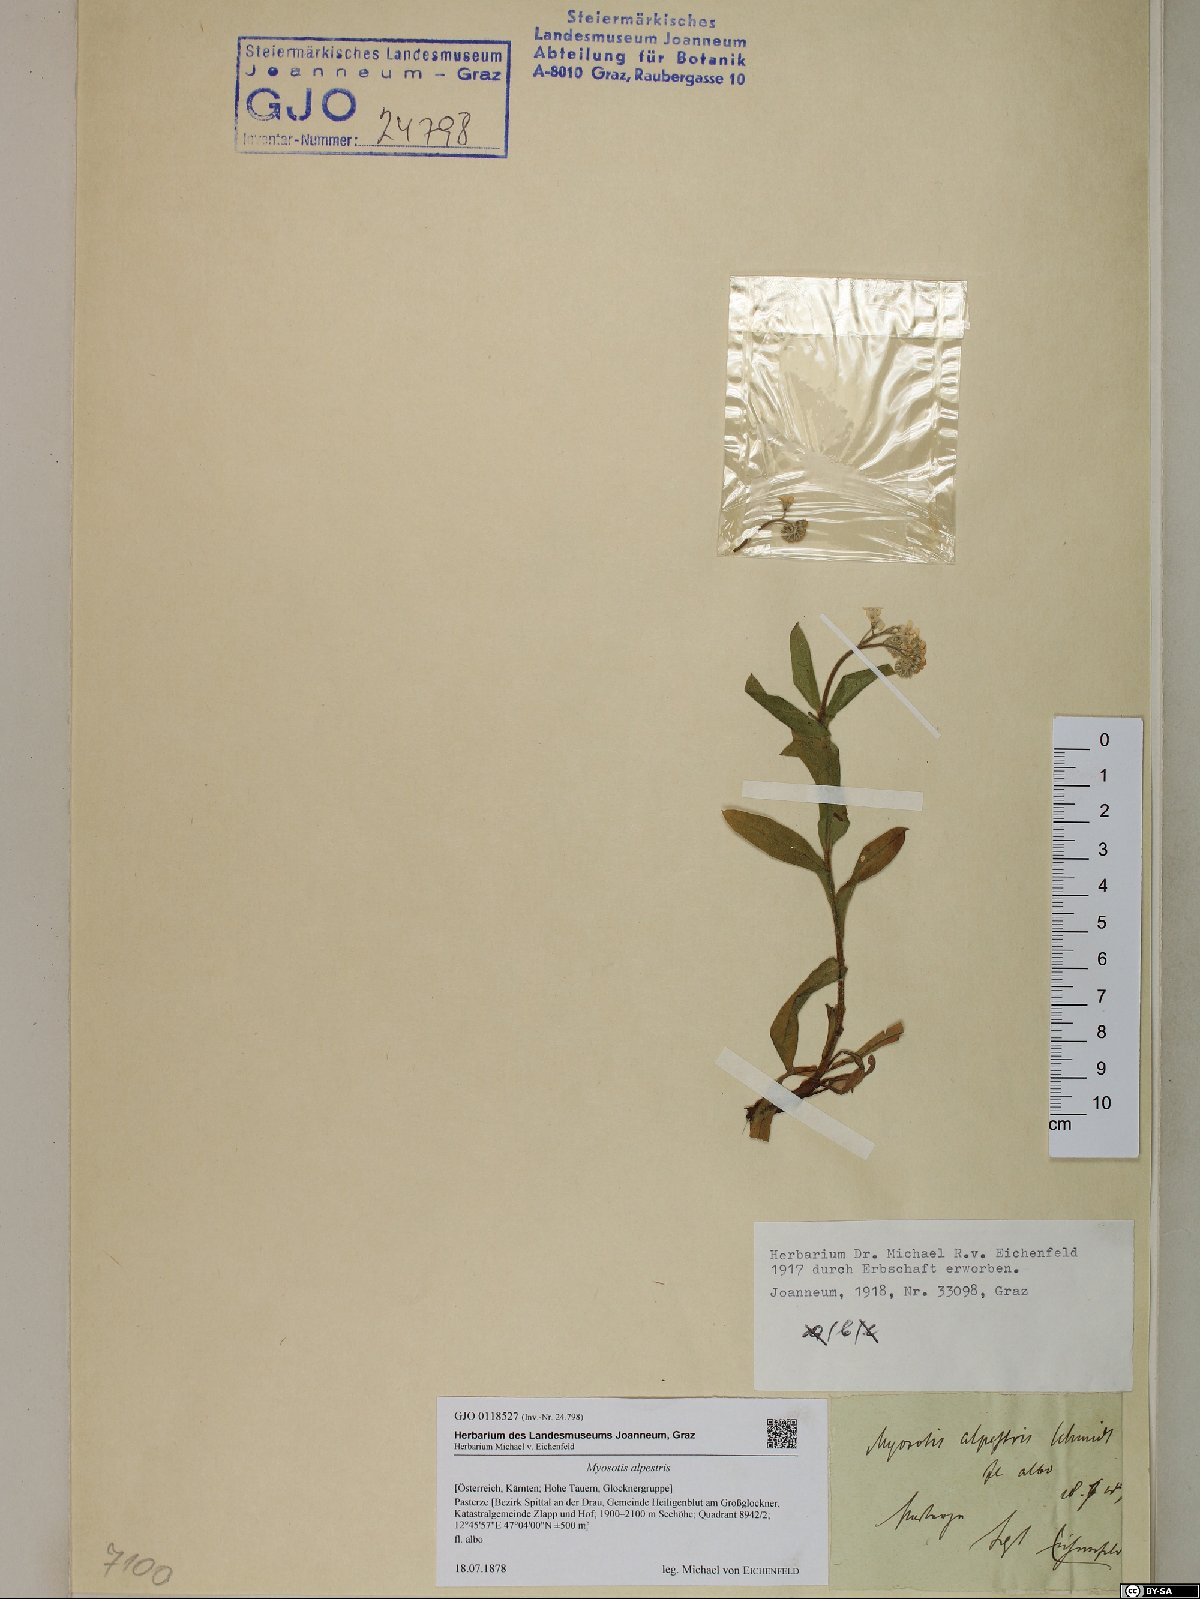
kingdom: Plantae
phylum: Tracheophyta
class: Magnoliopsida
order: Boraginales
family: Boraginaceae
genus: Myosotis
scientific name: Myosotis alpestris
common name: Alpine forget-me-not
